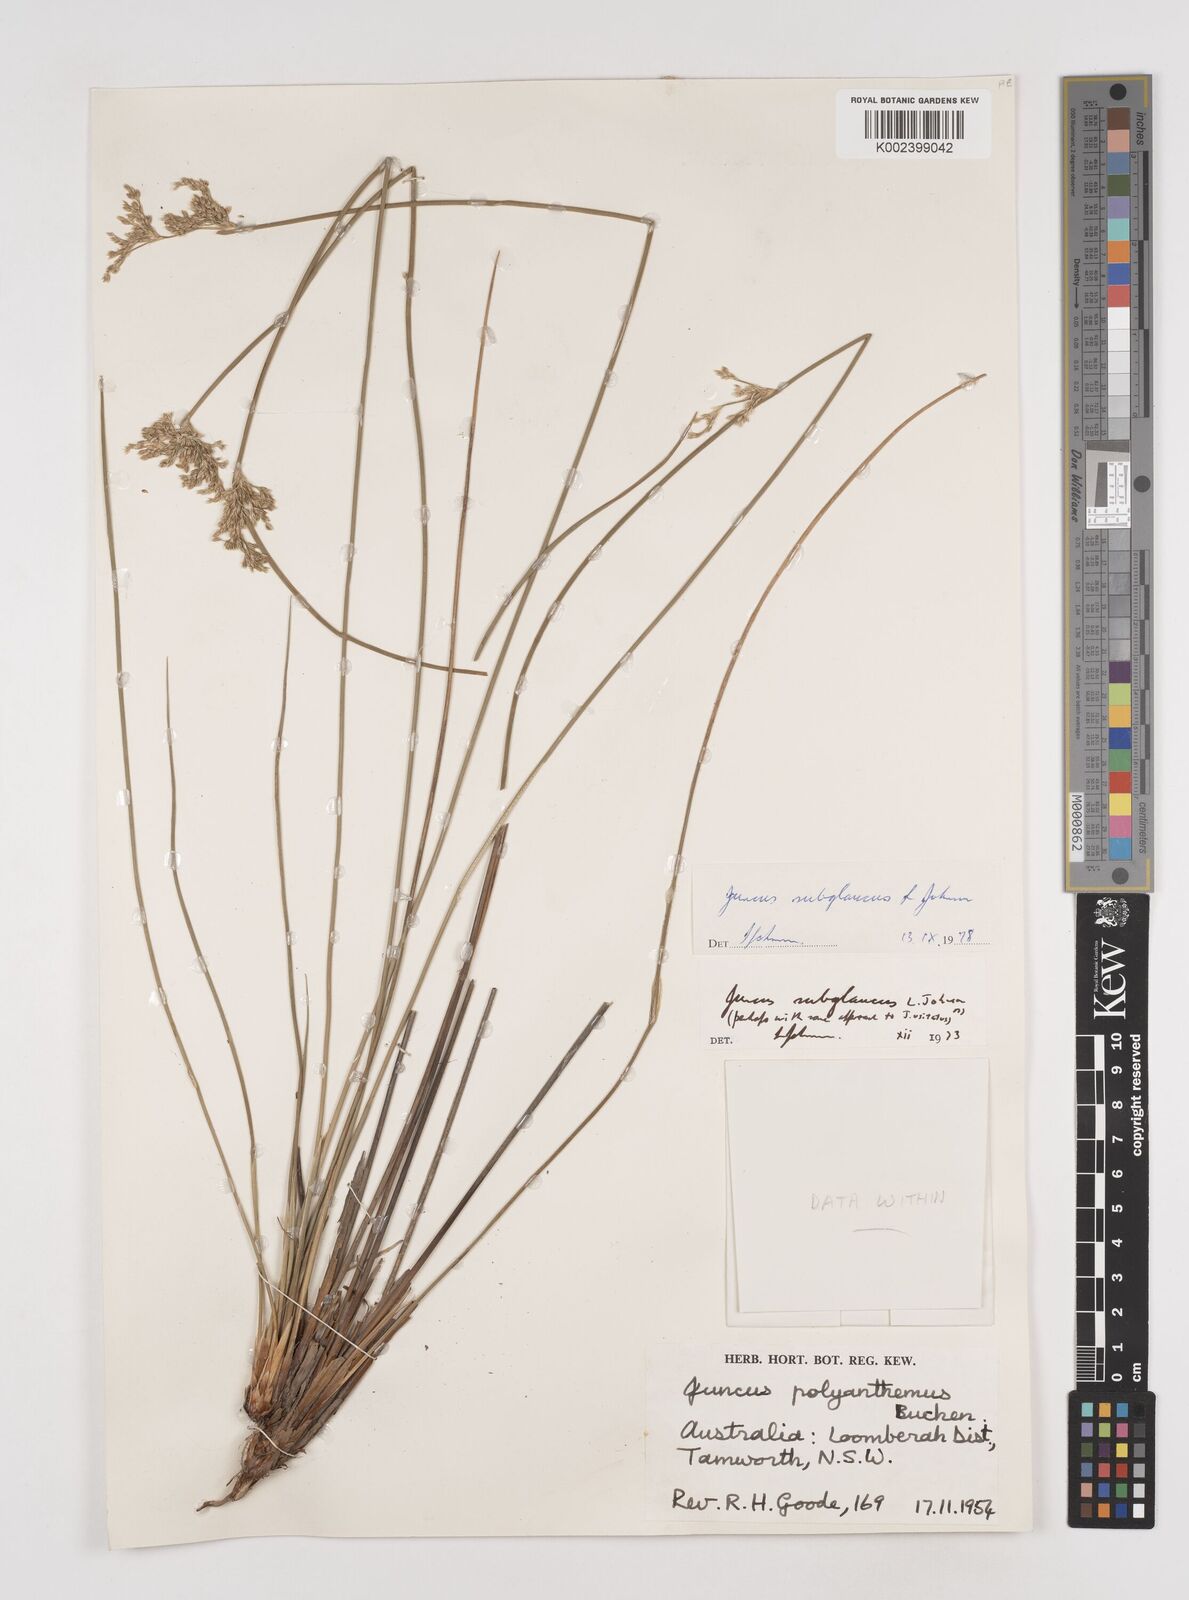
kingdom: Plantae
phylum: Tracheophyta
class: Liliopsida
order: Poales
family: Juncaceae
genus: Juncus
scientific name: Juncus subglaucus
